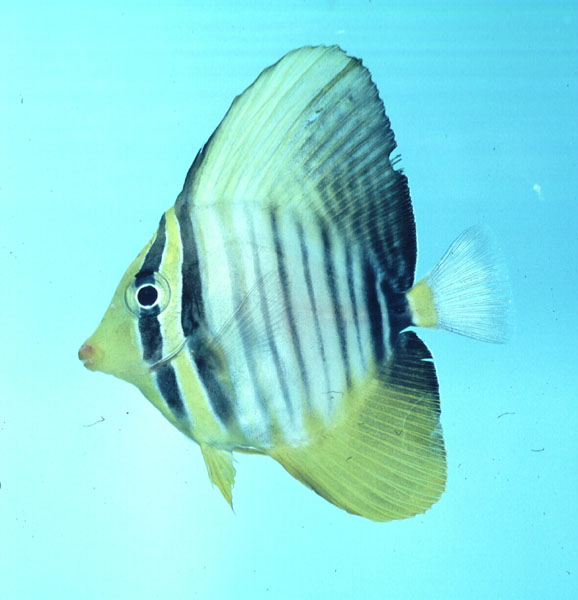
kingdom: Animalia
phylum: Chordata
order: Perciformes
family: Acanthuridae
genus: Zebrasoma
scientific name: Zebrasoma desjardinii
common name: Desjardin's sailfin tang
